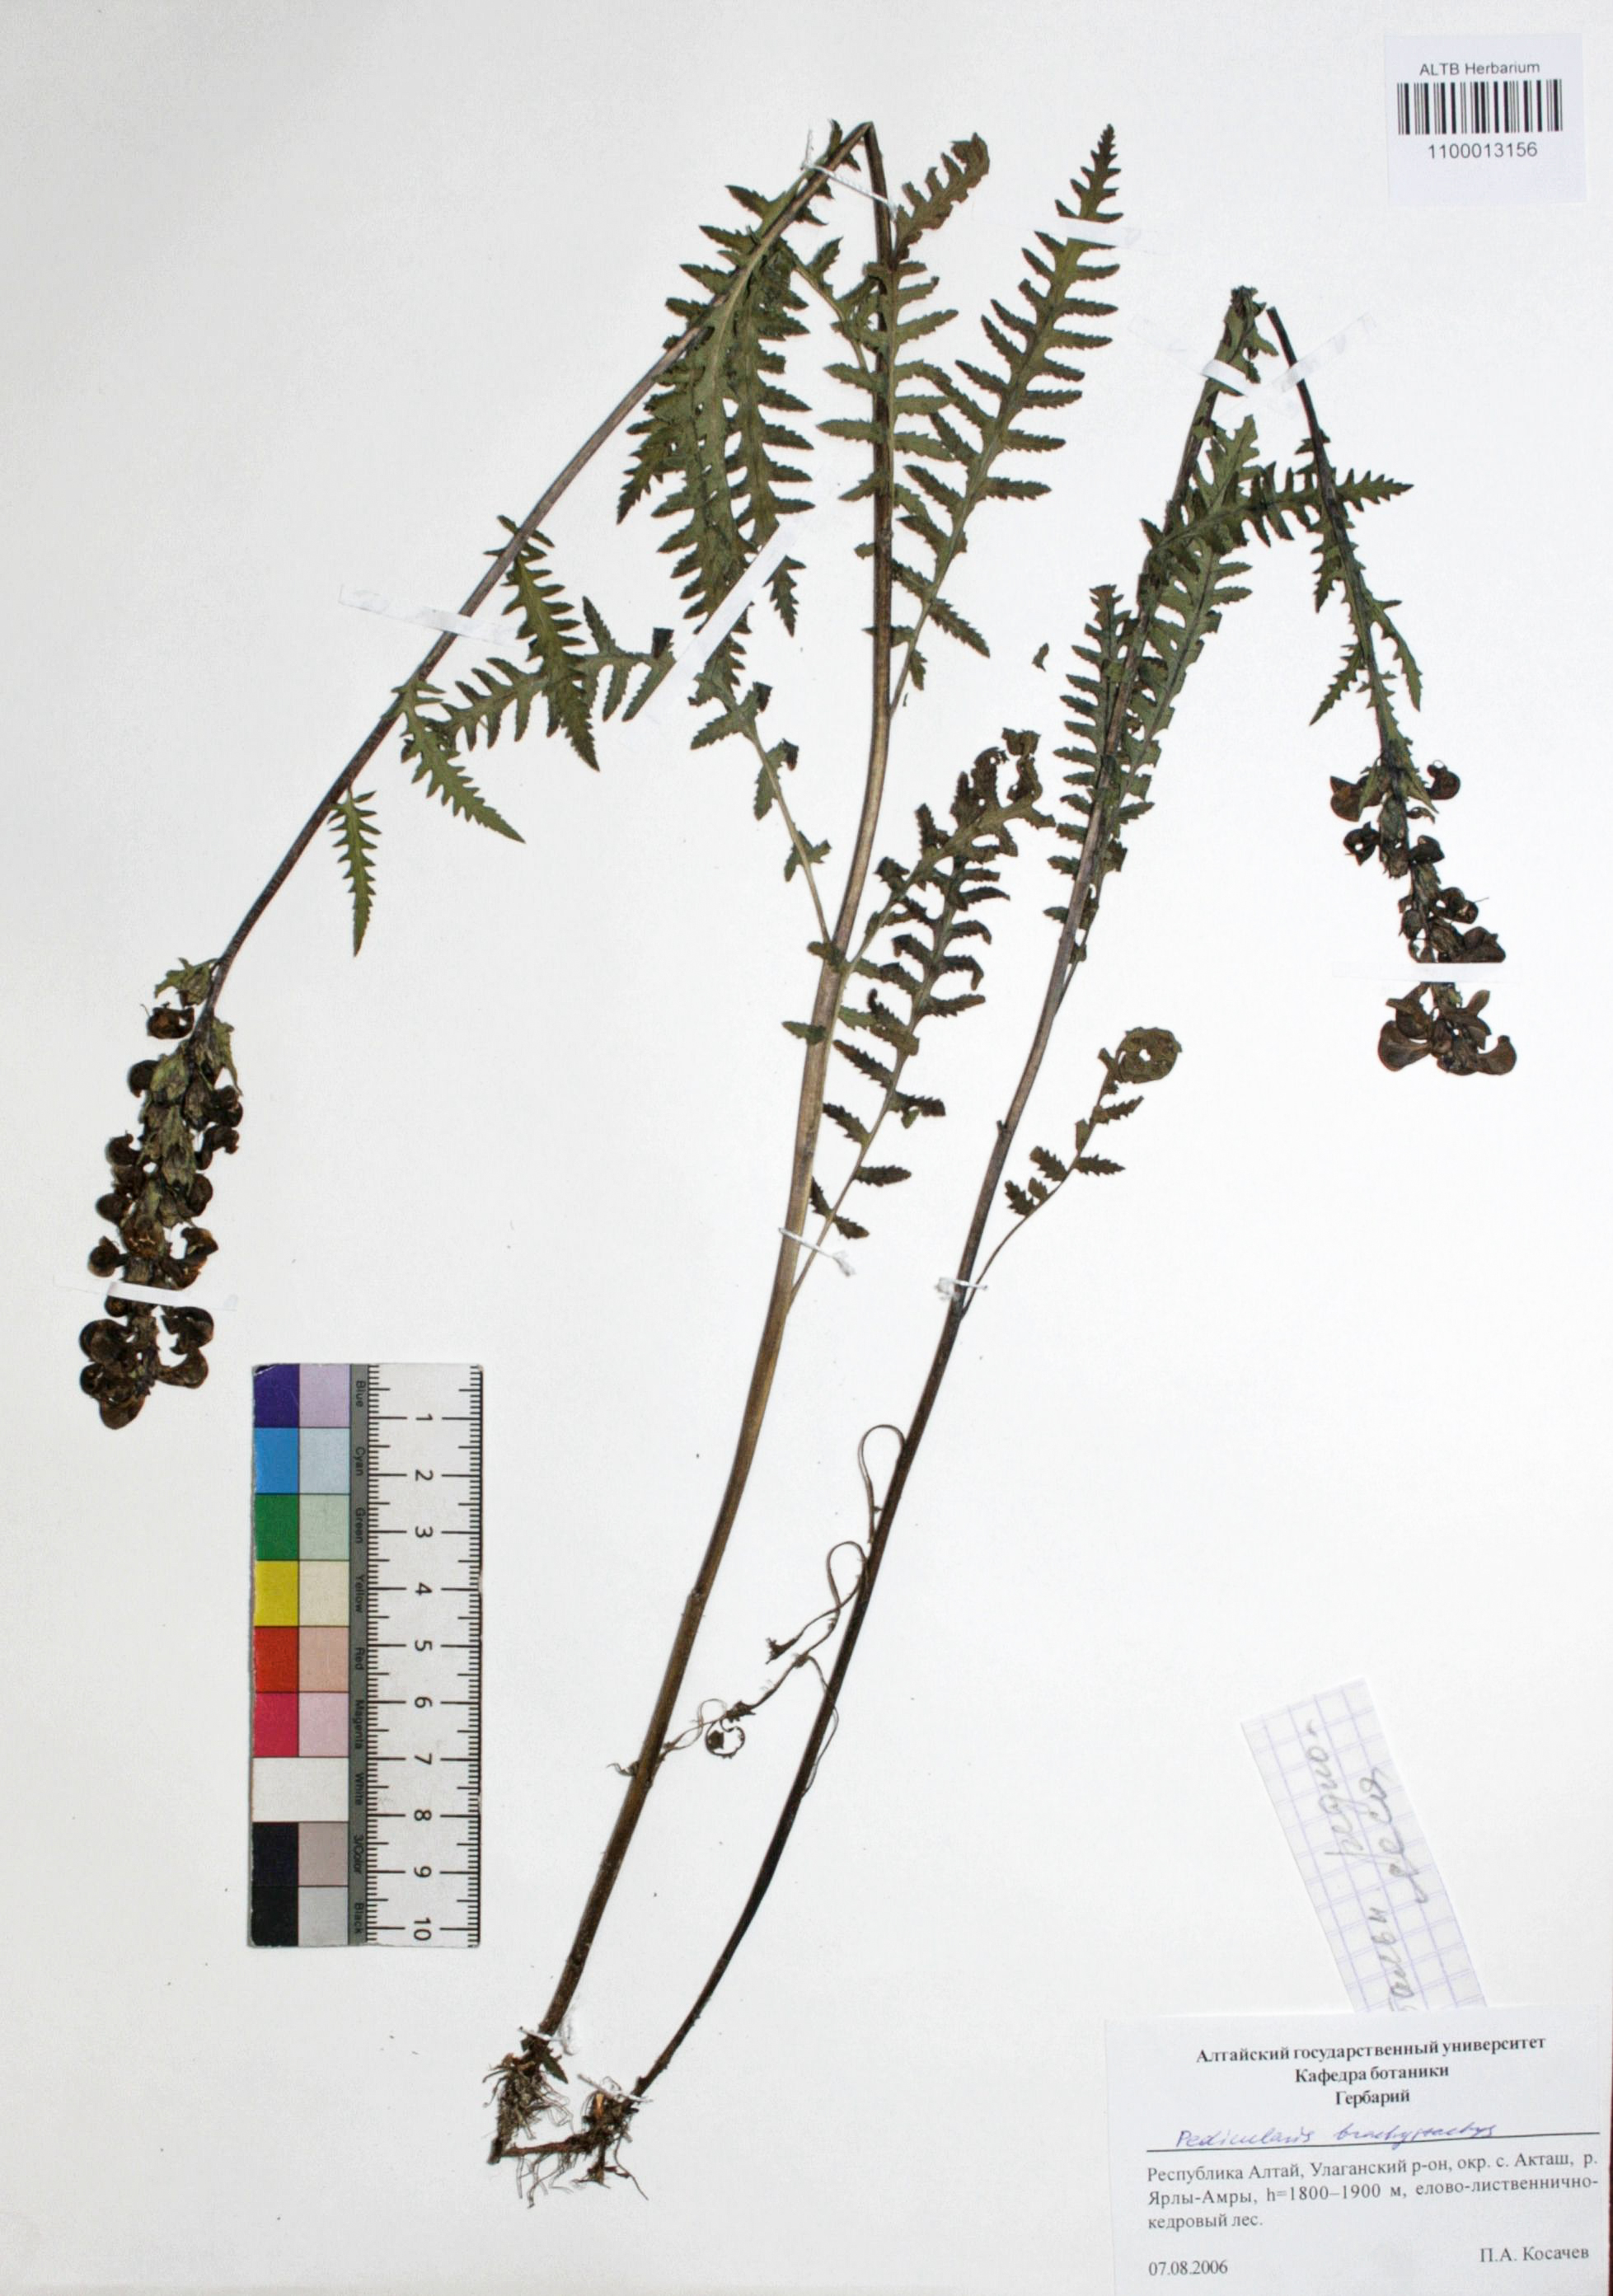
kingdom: Plantae
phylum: Tracheophyta
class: Magnoliopsida
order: Lamiales
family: Orobanchaceae
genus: Pedicularis
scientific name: Pedicularis brachystachys
